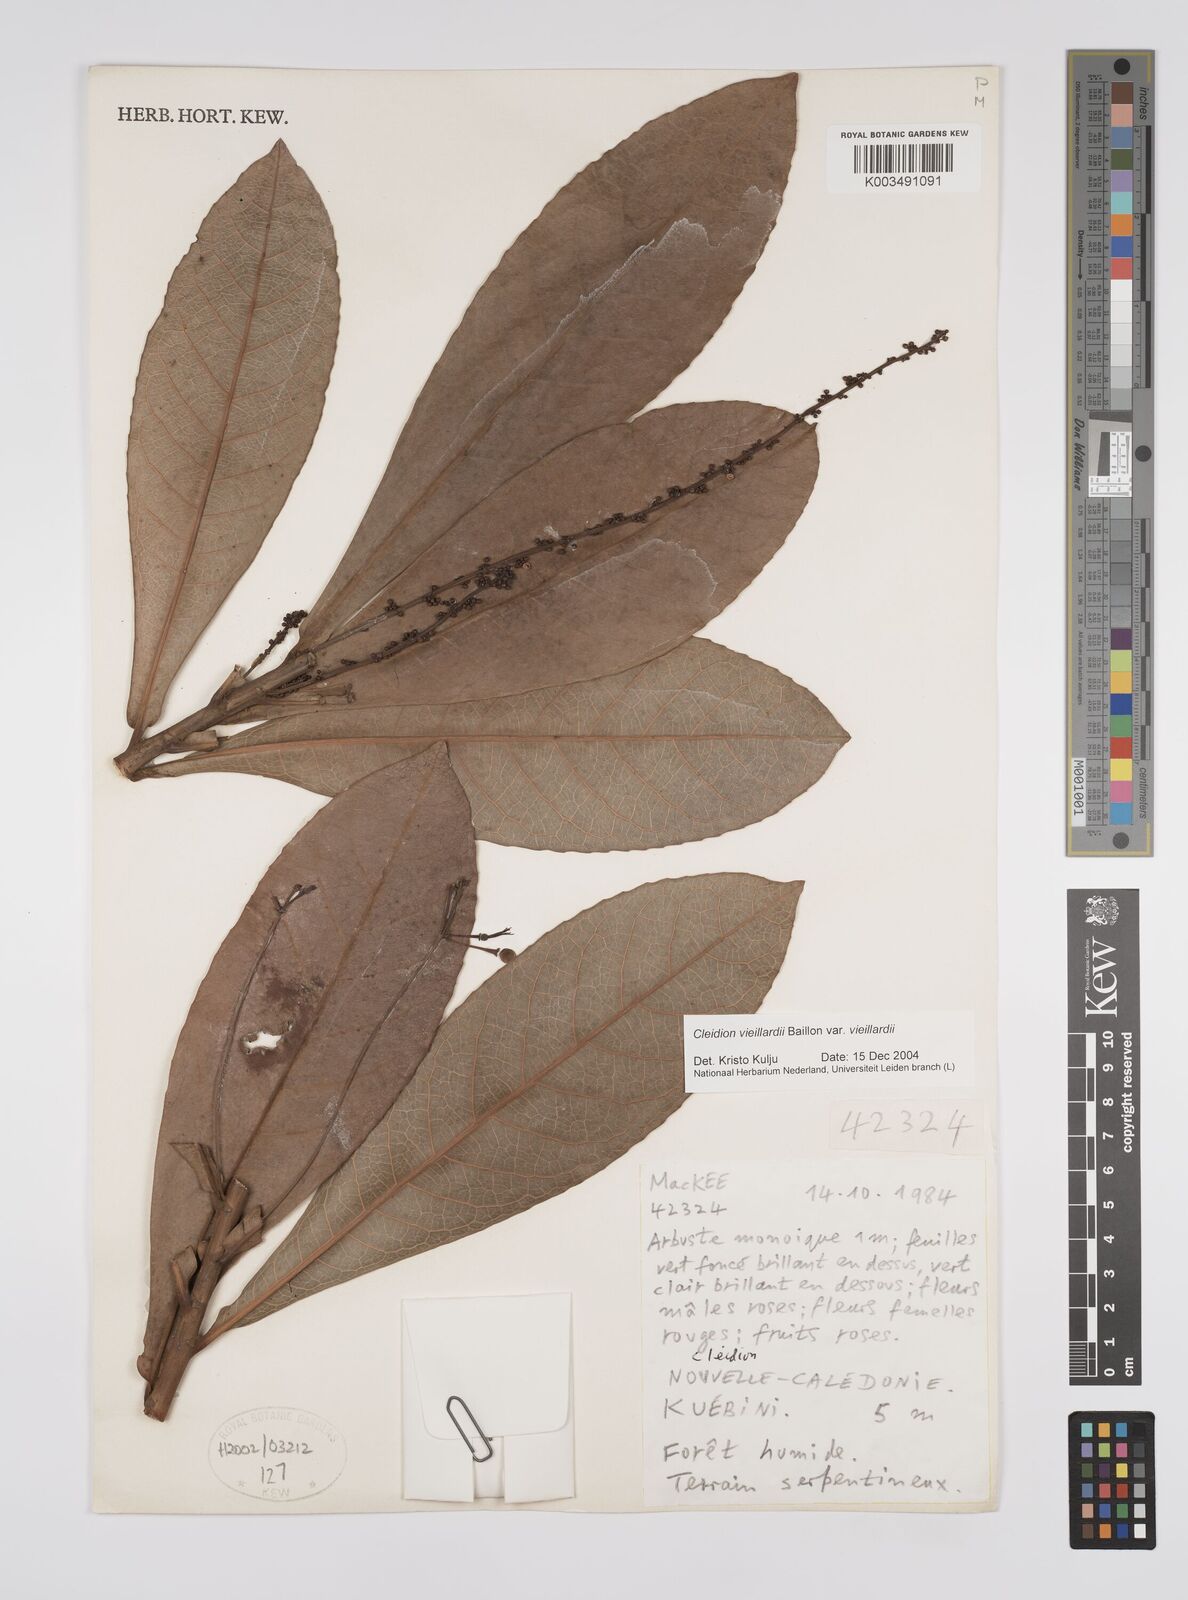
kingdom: Plantae
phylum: Tracheophyta
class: Magnoliopsida
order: Malpighiales
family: Euphorbiaceae
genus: Cleidion
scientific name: Cleidion vieillardii
